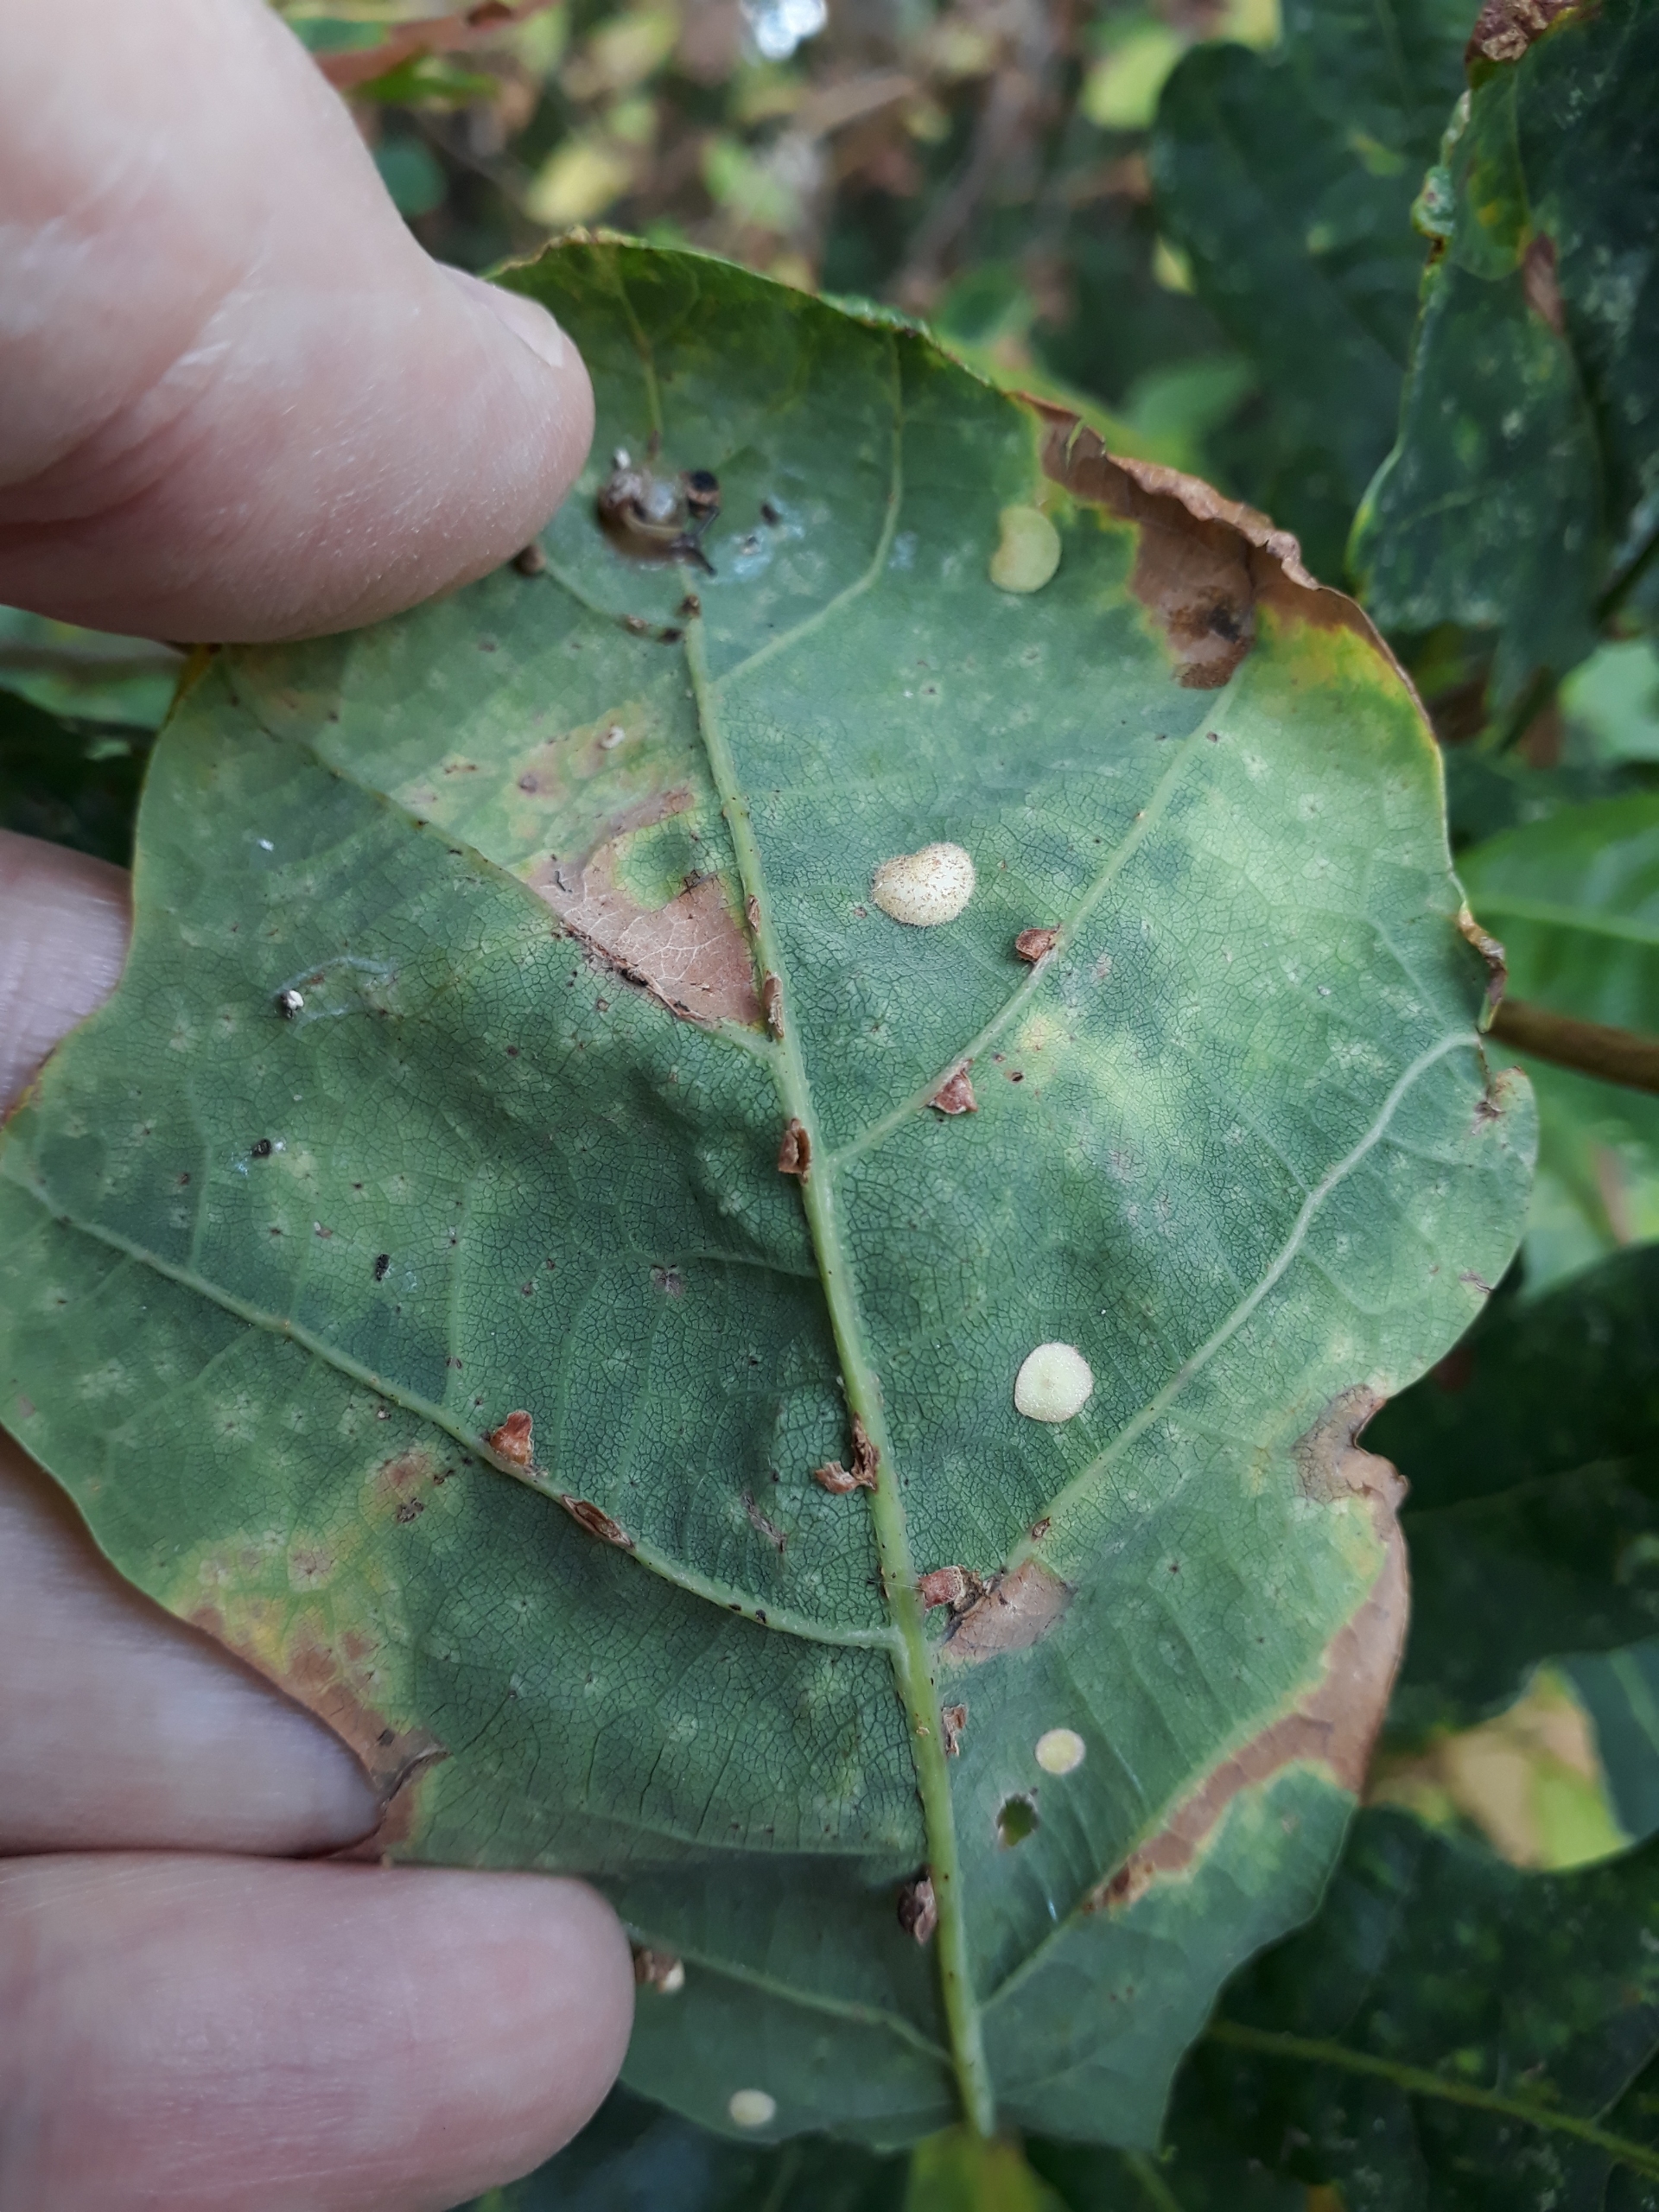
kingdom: Animalia
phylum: Arthropoda
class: Insecta
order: Hymenoptera
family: Cynipidae
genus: Neuroterus
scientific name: Neuroterus quercusbaccarum
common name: Linsegalhveps
